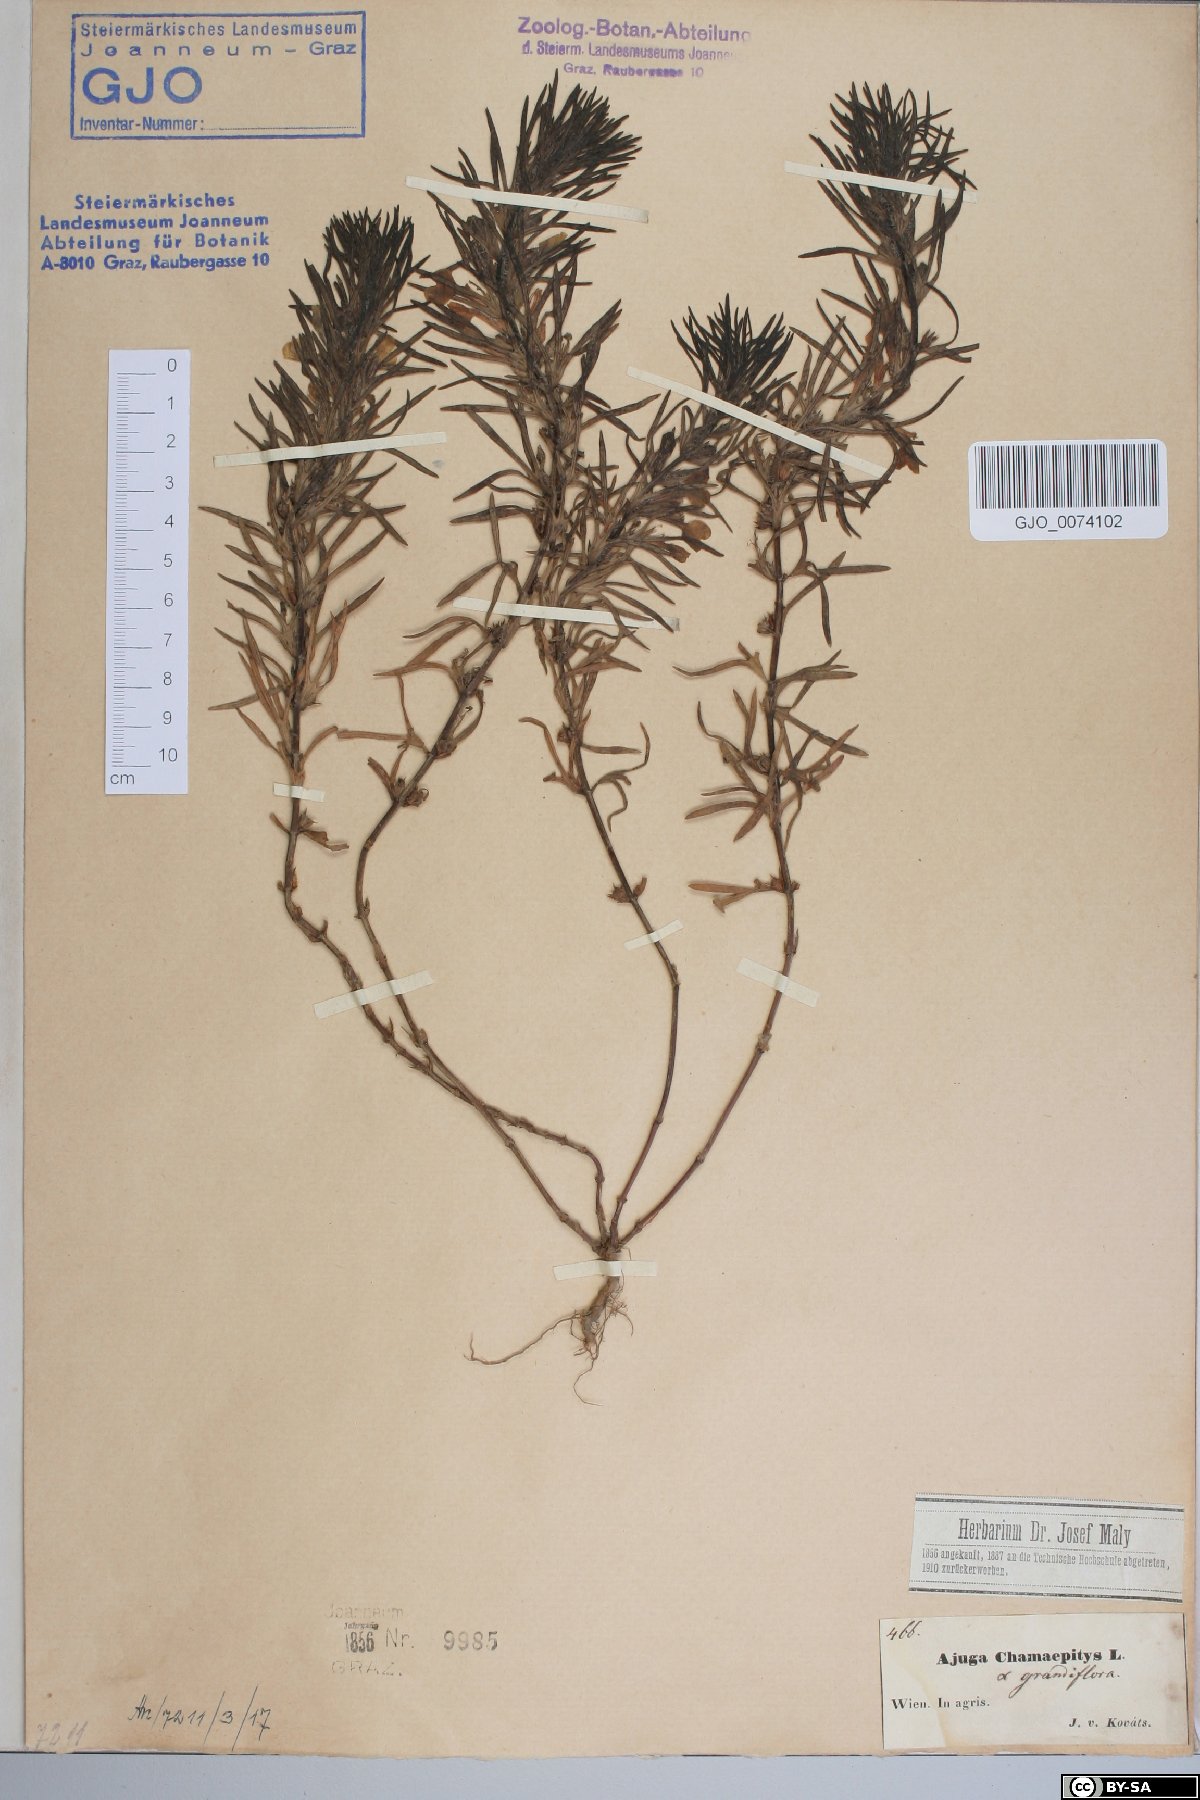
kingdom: Plantae
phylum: Tracheophyta
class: Magnoliopsida
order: Lamiales
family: Lamiaceae
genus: Ajuga
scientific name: Ajuga chamaepitys
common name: Ground-pine
